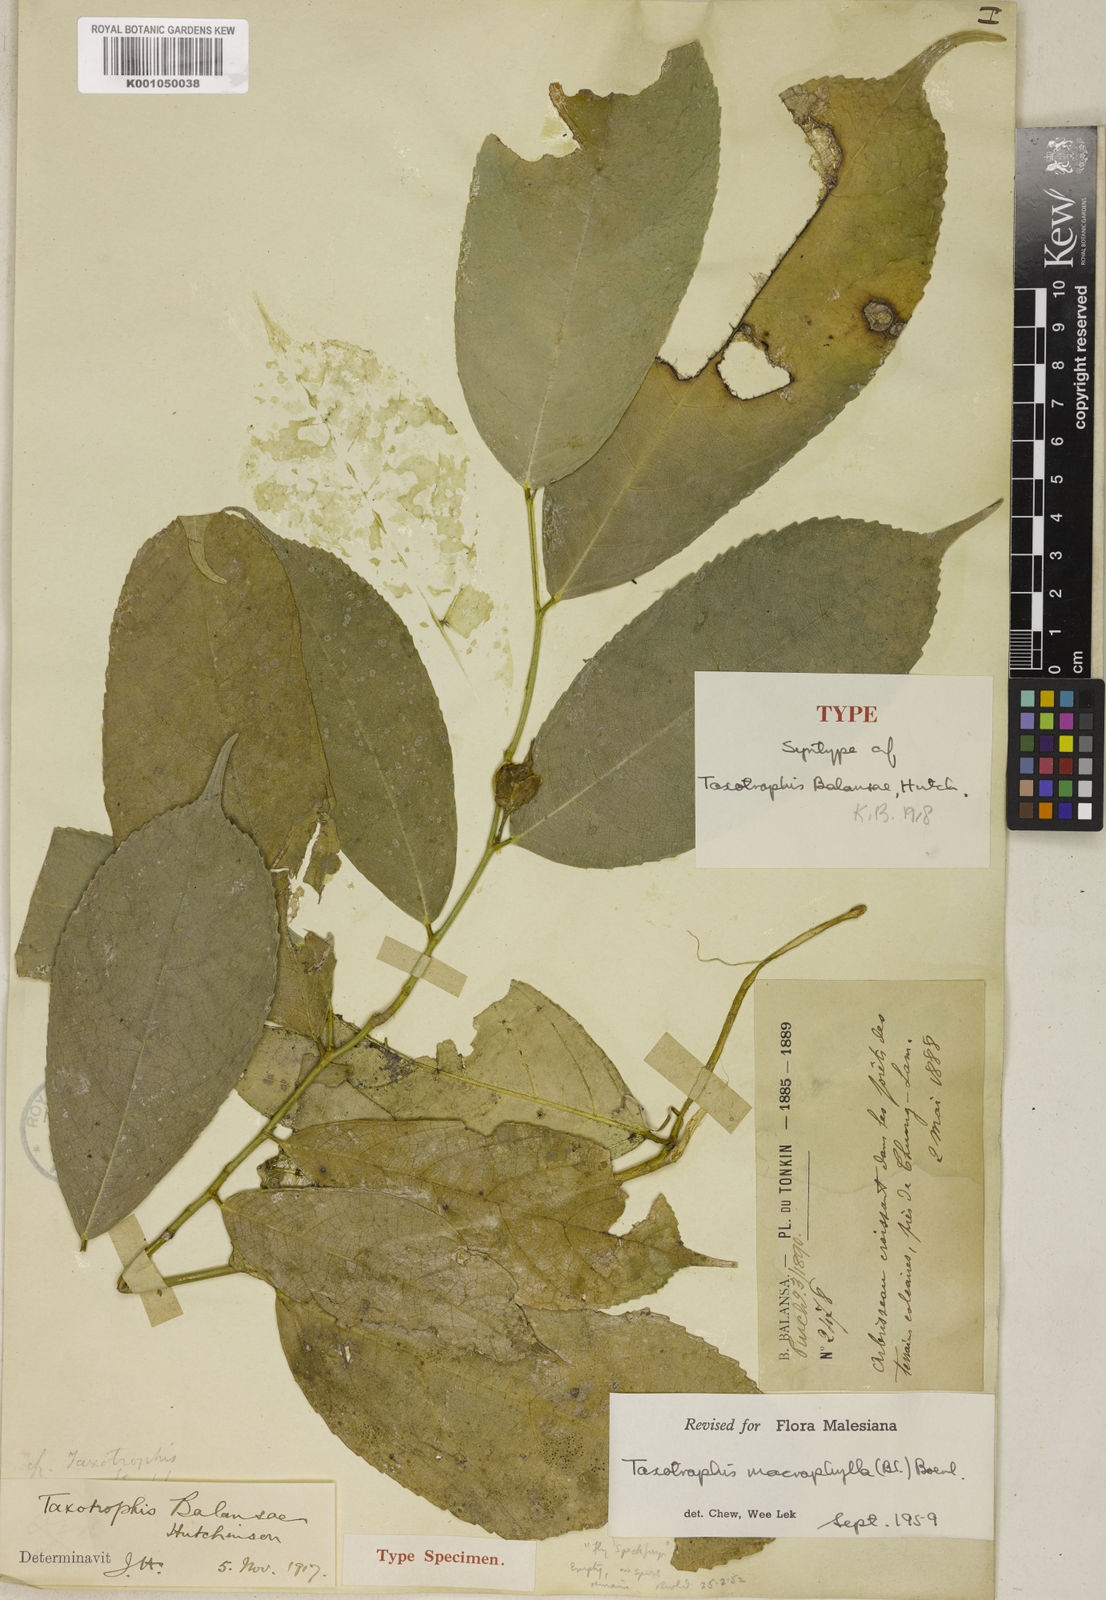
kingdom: Plantae
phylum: Tracheophyta
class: Magnoliopsida
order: Rosales
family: Moraceae
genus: Taxotrophis
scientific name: Taxotrophis macrophylla
